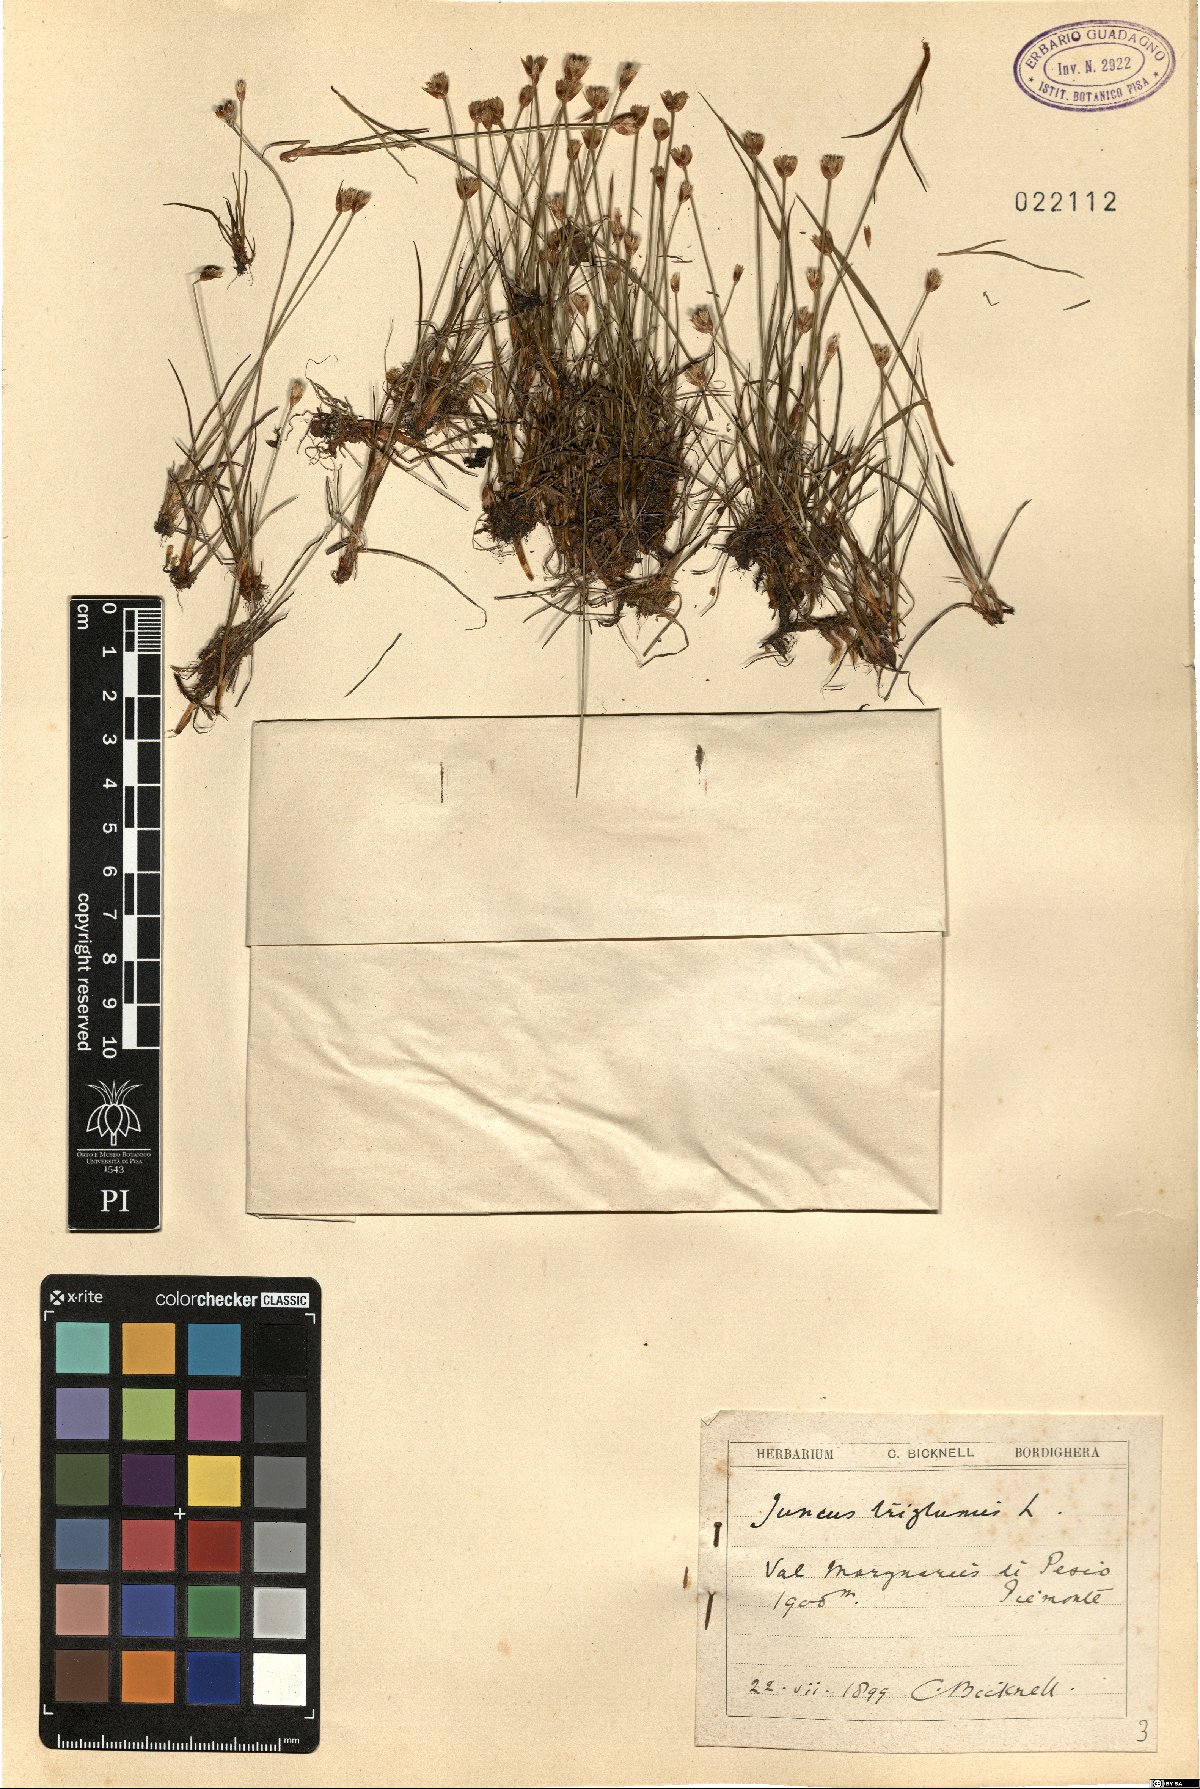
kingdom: Plantae
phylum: Tracheophyta
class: Liliopsida
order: Poales
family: Juncaceae
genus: Juncus
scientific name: Juncus biglumis
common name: Two-flowered rush
